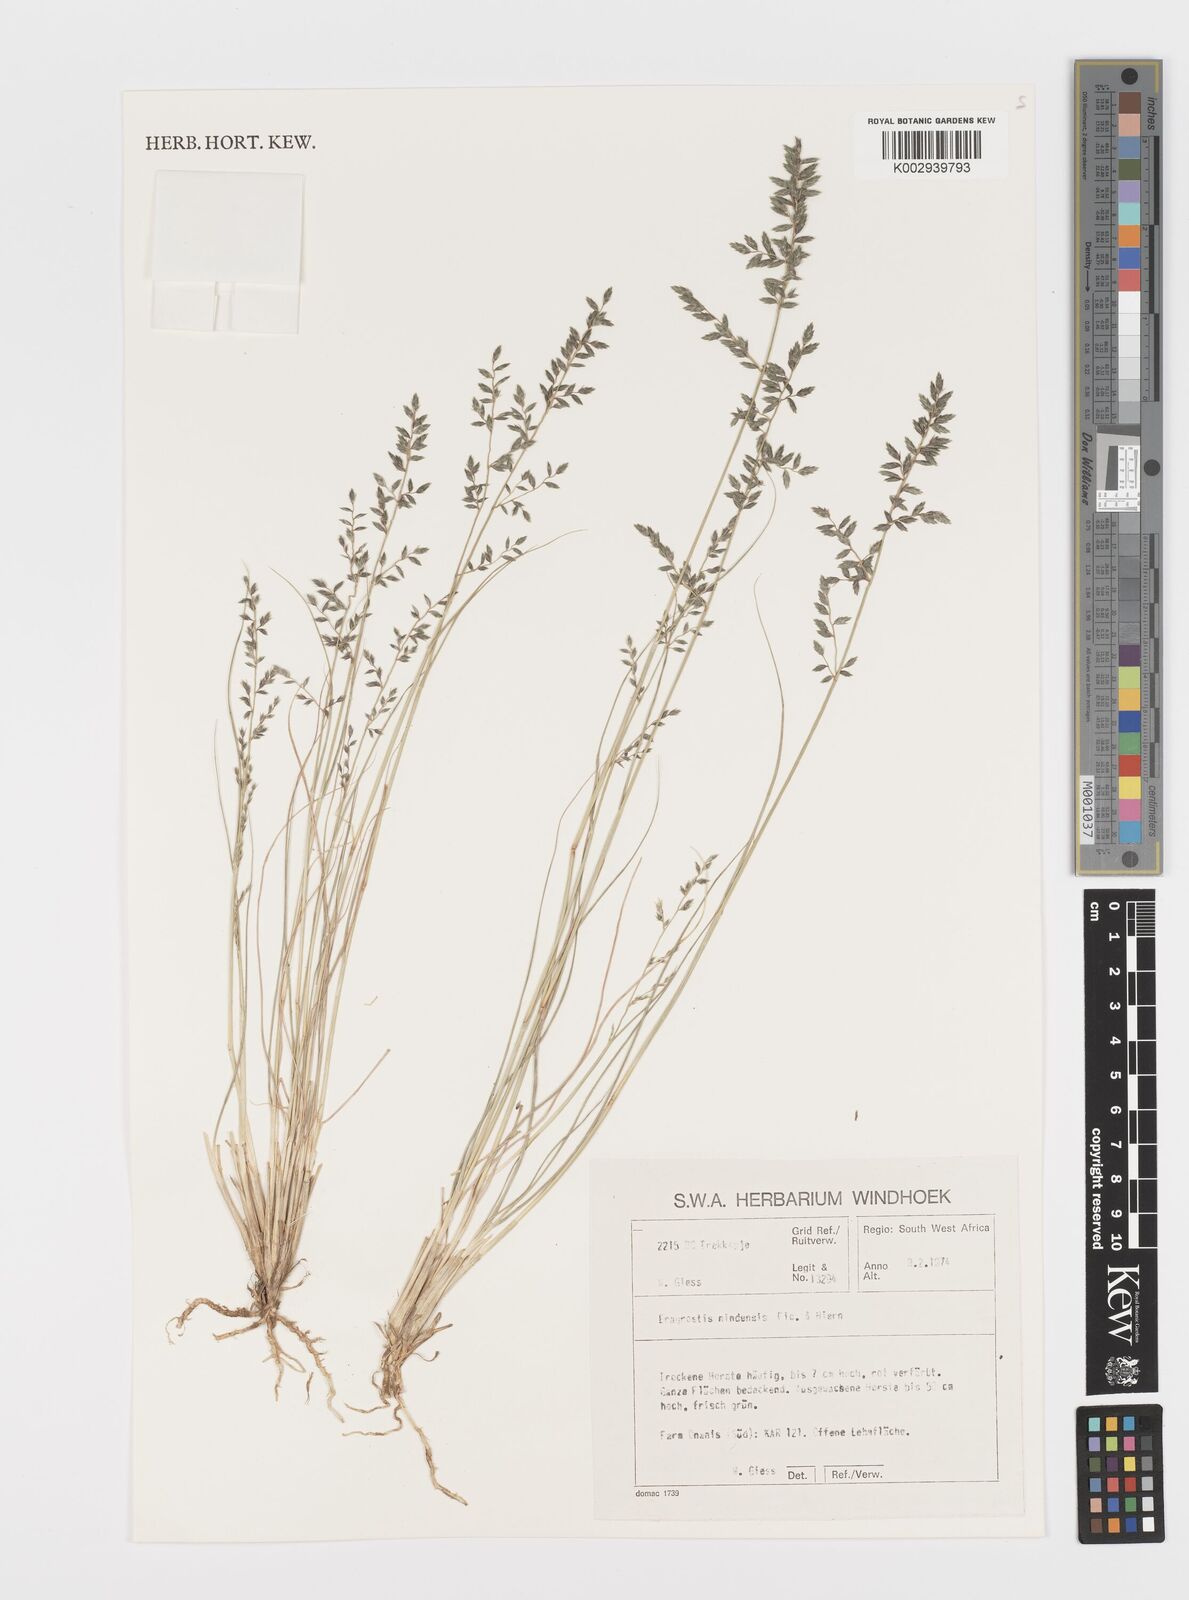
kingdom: Plantae
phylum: Tracheophyta
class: Liliopsida
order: Poales
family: Poaceae
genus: Eragrostis
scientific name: Eragrostis nindensis
